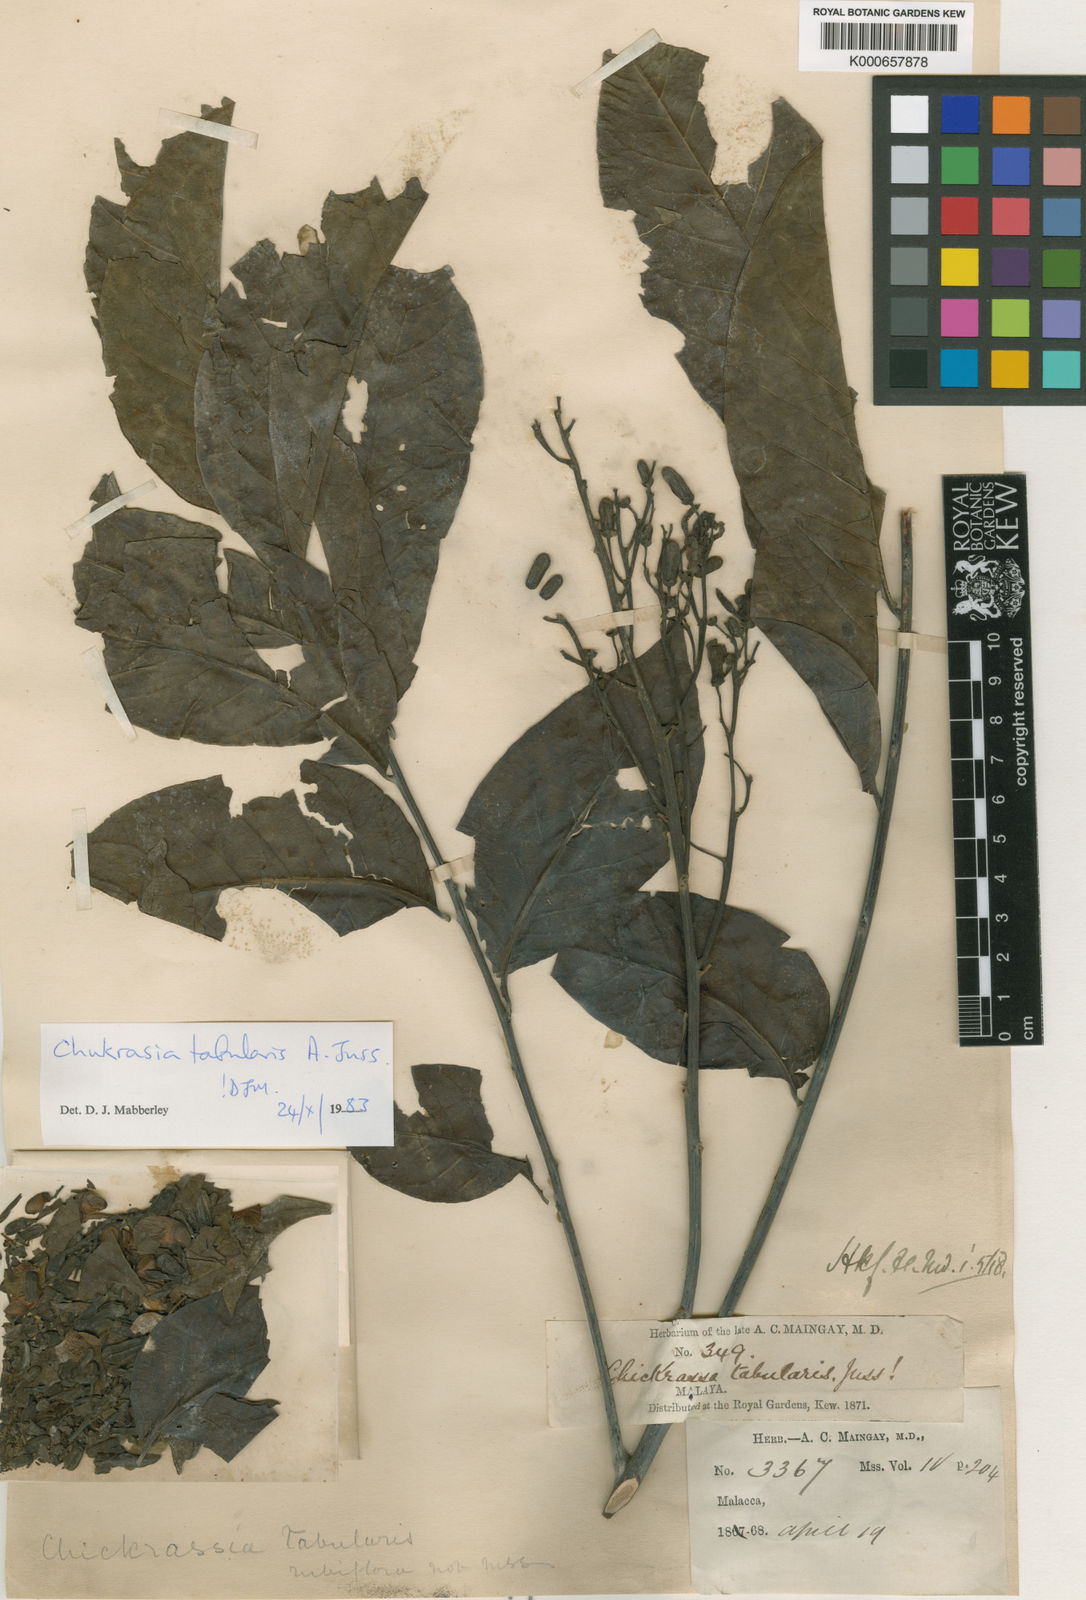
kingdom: Plantae
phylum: Tracheophyta
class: Magnoliopsida
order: Sapindales
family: Meliaceae
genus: Chukrasia
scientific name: Chukrasia tabularis
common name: Chittagong wood
